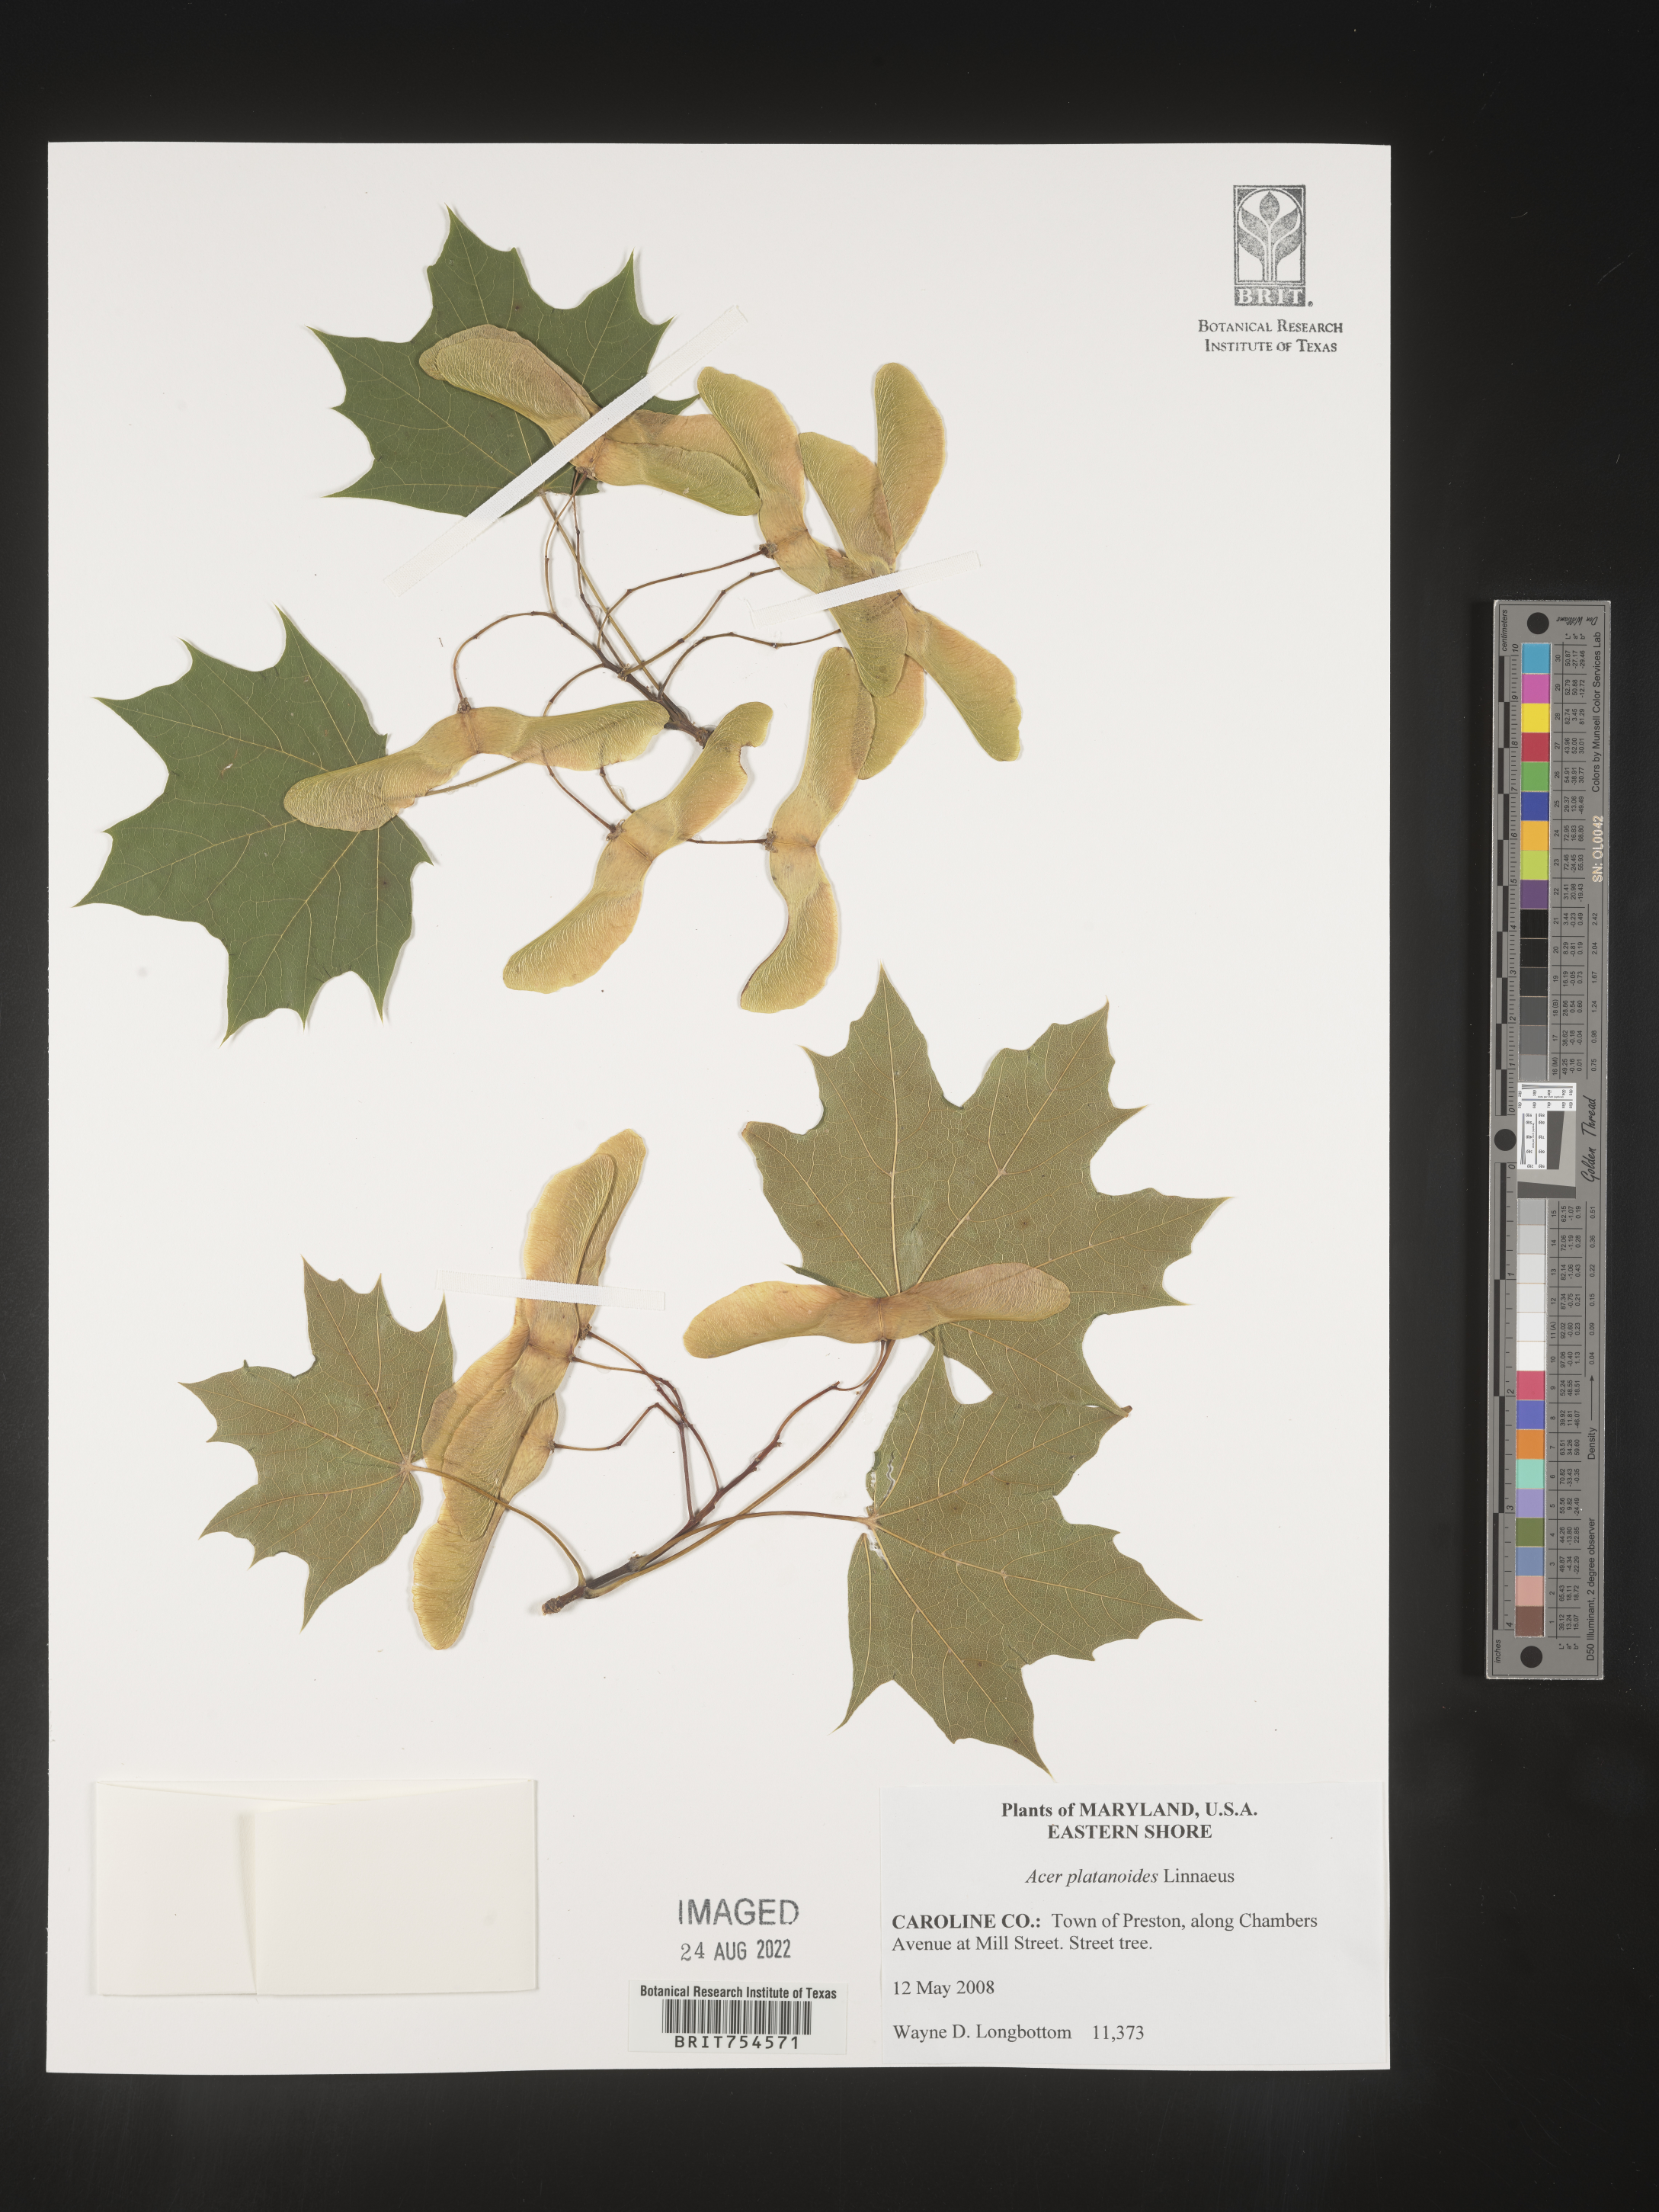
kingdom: Plantae
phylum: Tracheophyta
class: Magnoliopsida
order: Sapindales
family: Sapindaceae
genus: Acer
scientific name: Acer
